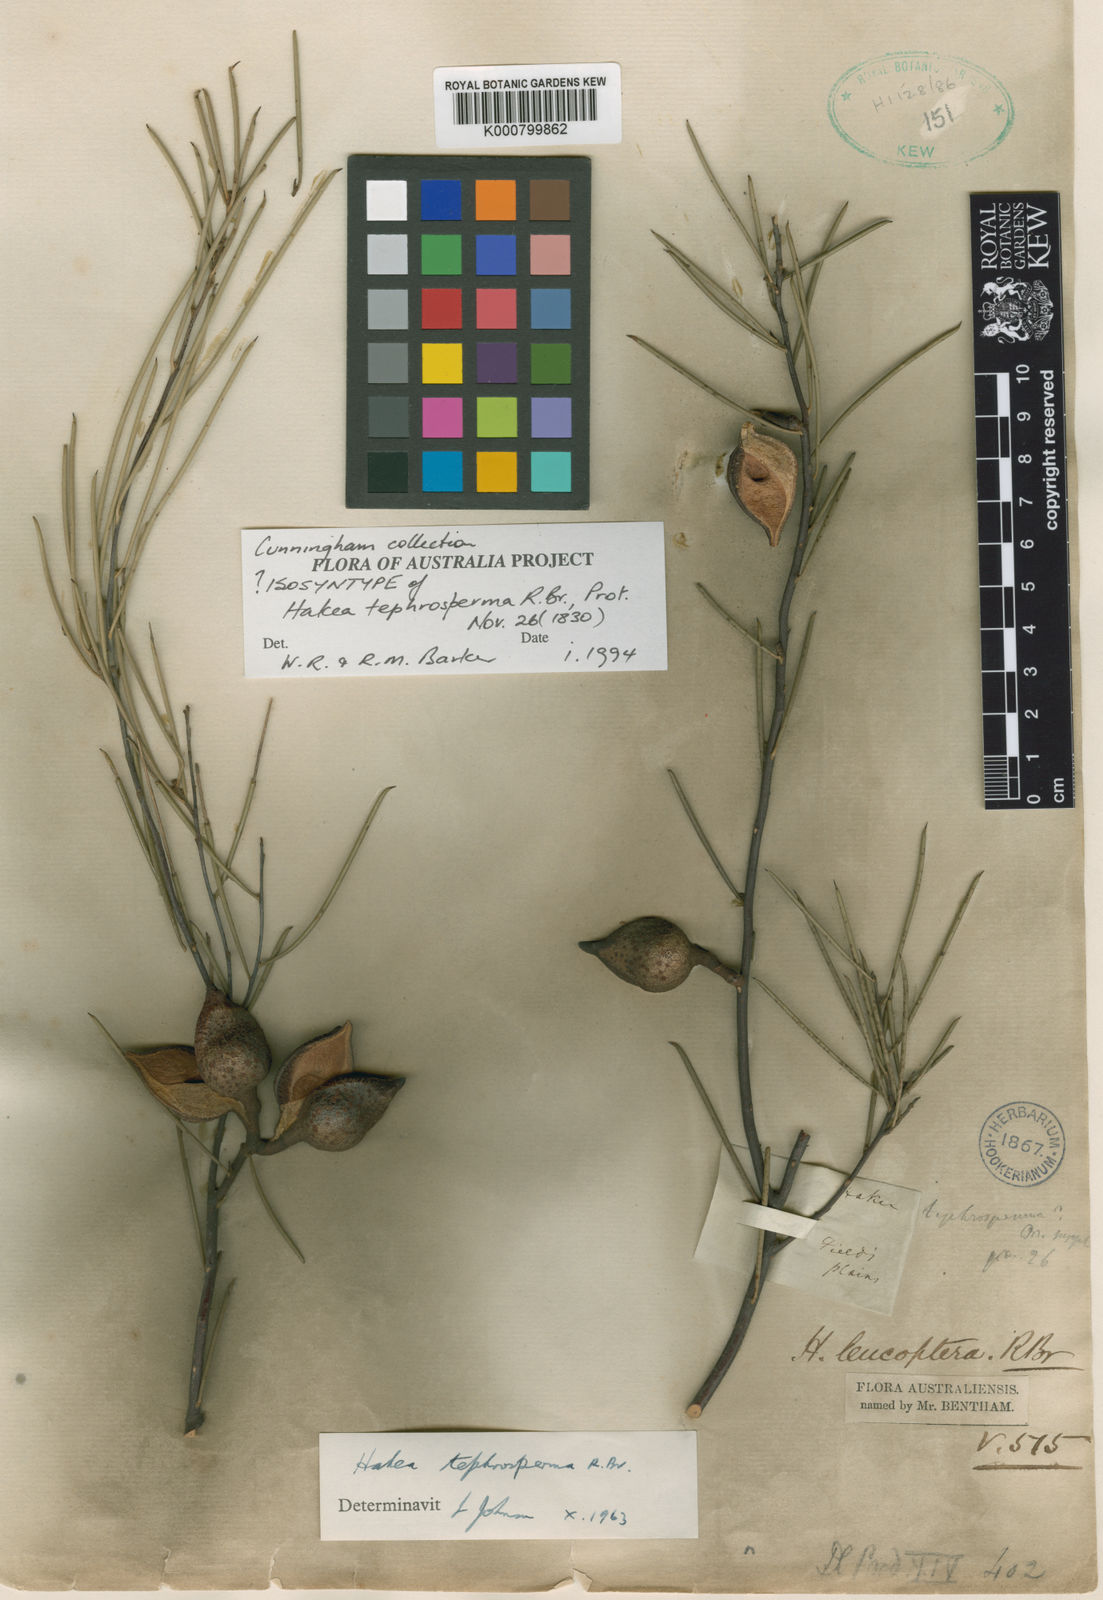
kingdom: Plantae
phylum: Tracheophyta
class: Magnoliopsida
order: Proteales
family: Proteaceae
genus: Hakea
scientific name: Hakea tephrosperma
